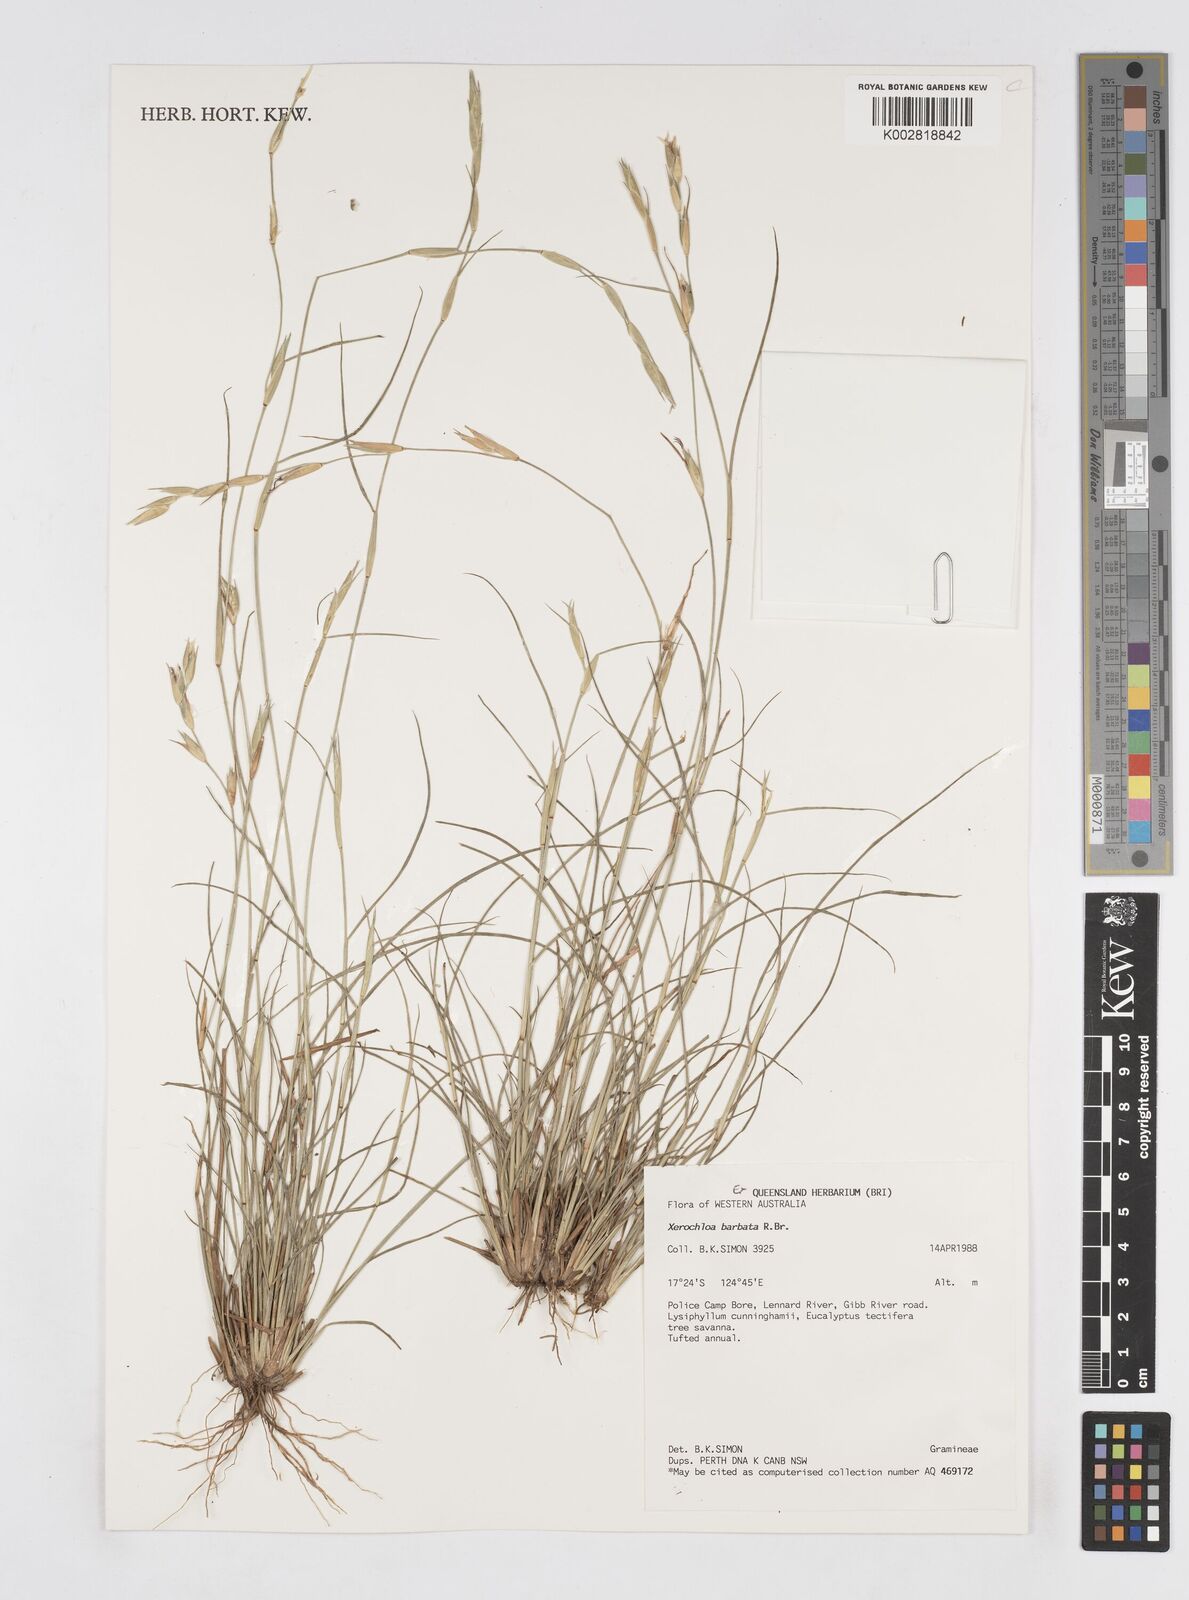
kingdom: Plantae
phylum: Tracheophyta
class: Liliopsida
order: Poales
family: Poaceae
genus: Xerochloa
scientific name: Xerochloa barbata
